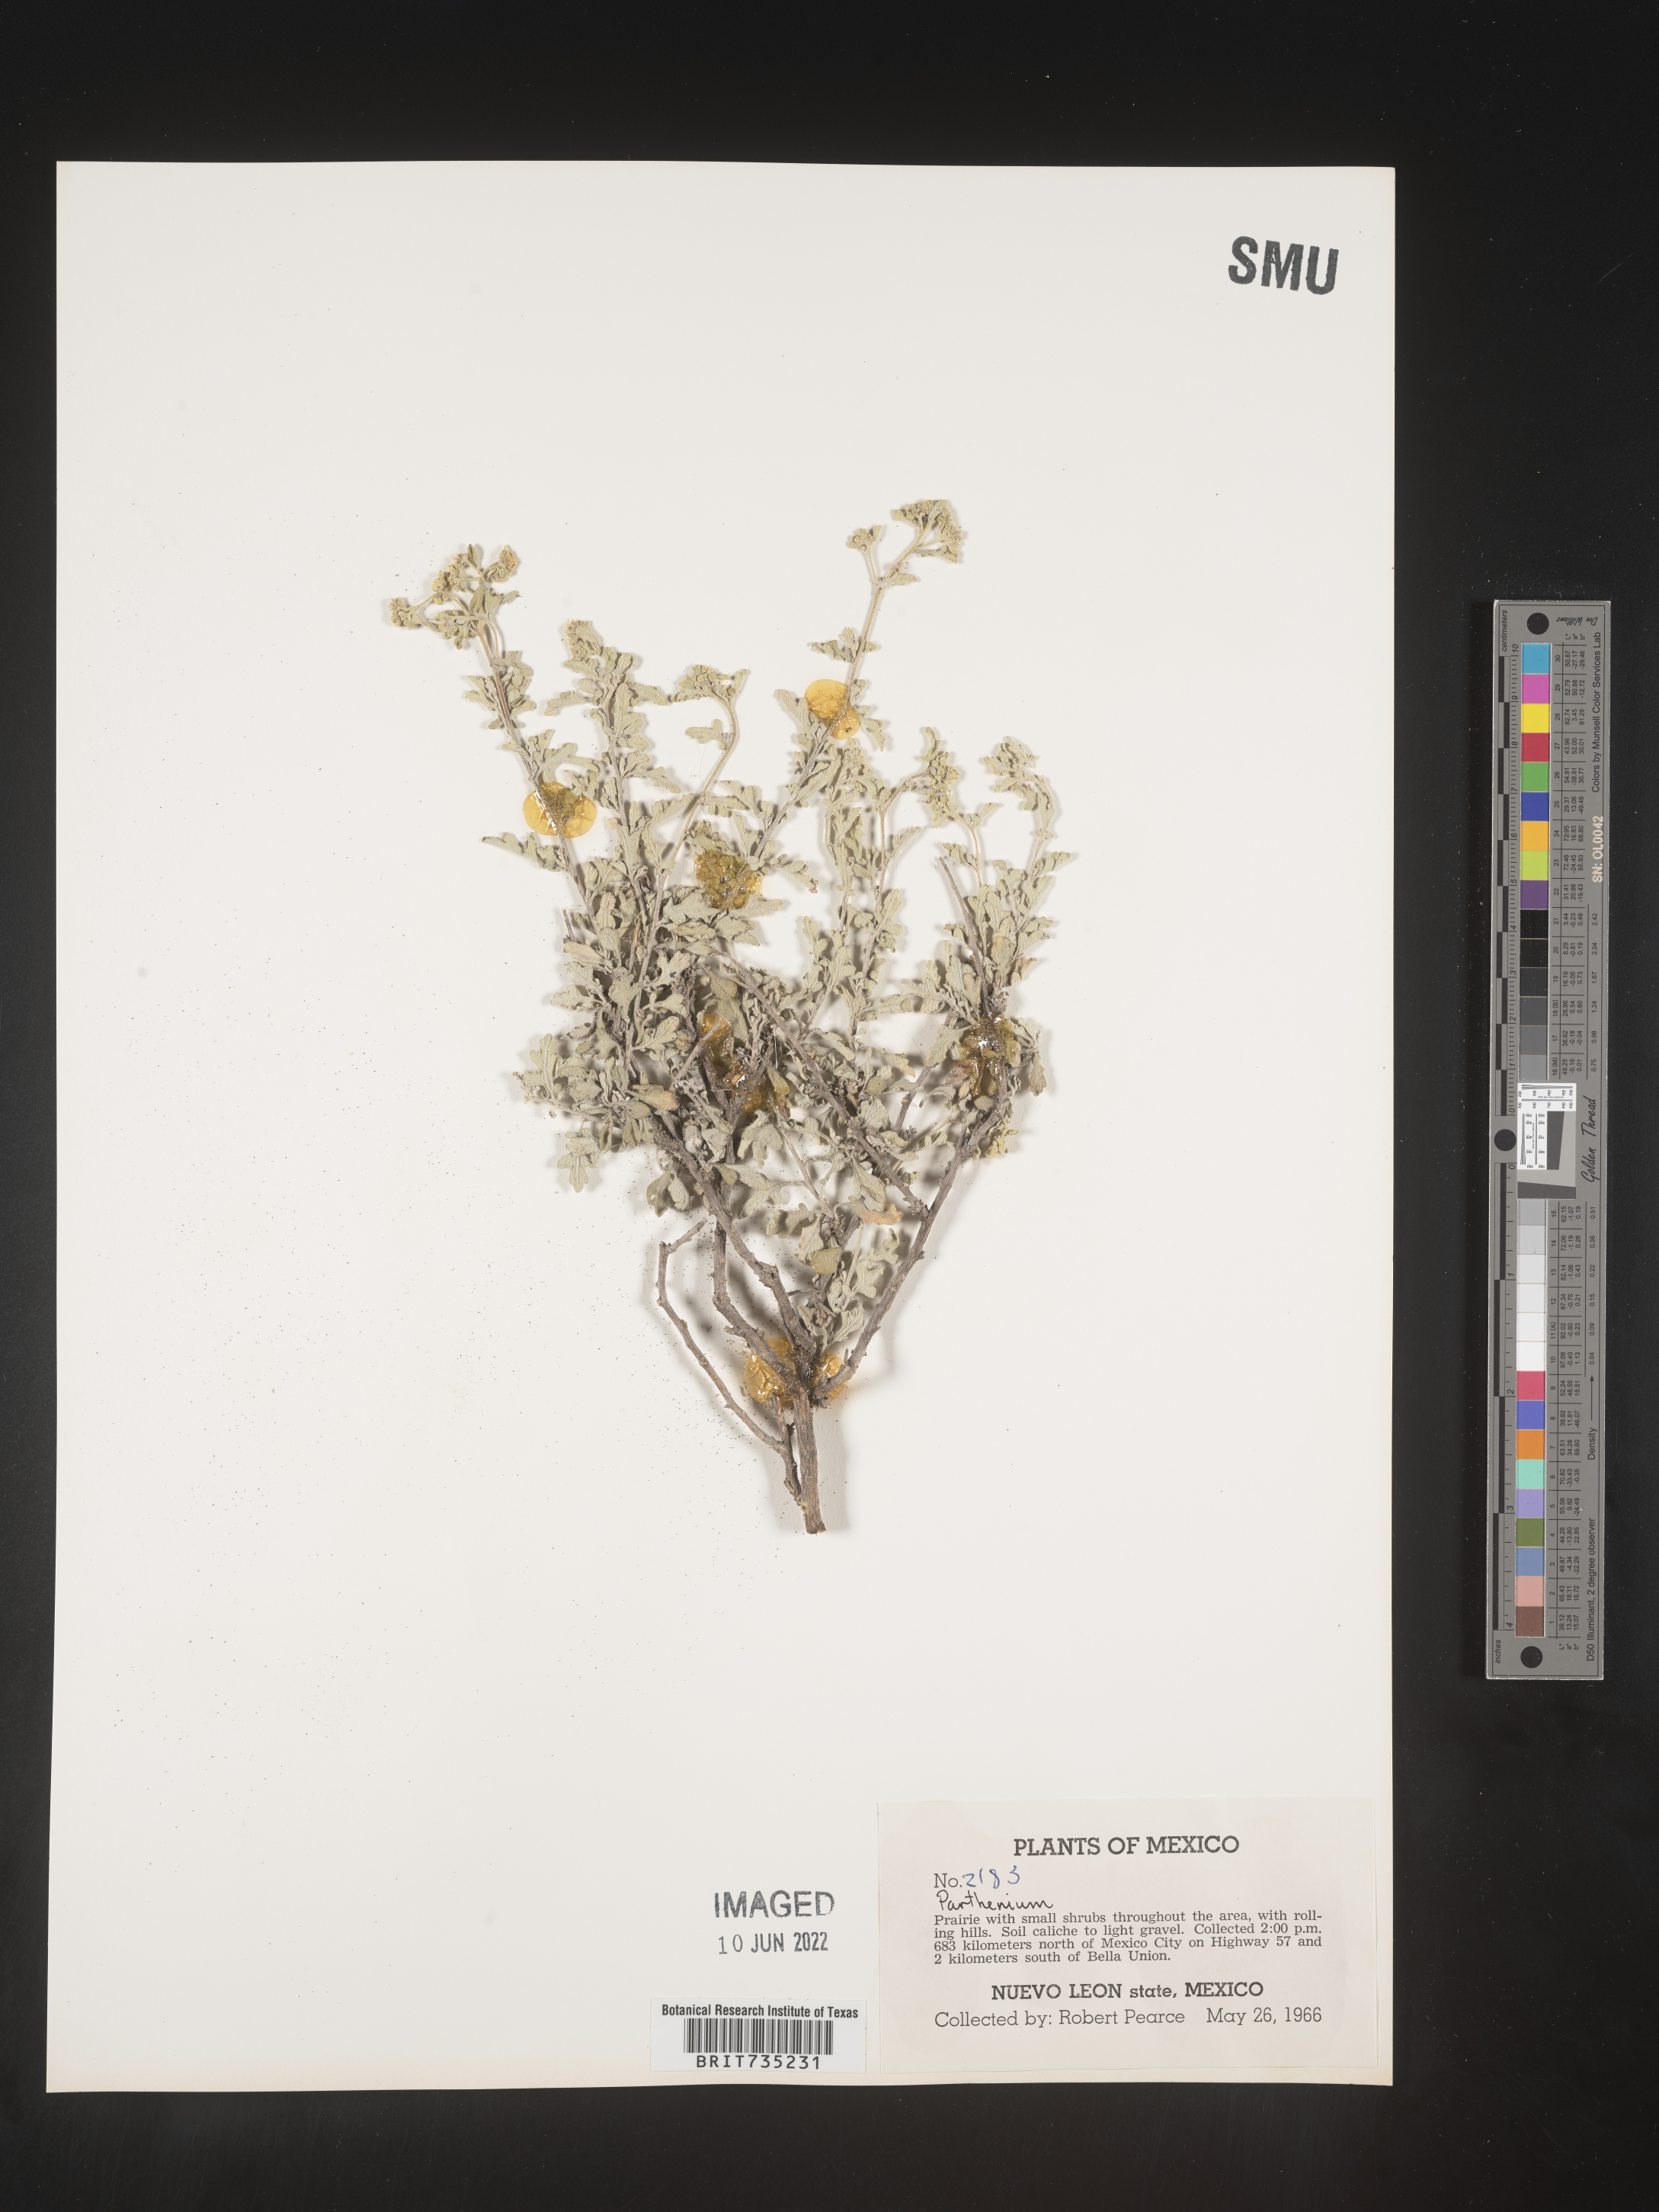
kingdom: Plantae
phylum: Tracheophyta
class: Magnoliopsida
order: Asterales
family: Asteraceae
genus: Parthenium
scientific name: Parthenium
